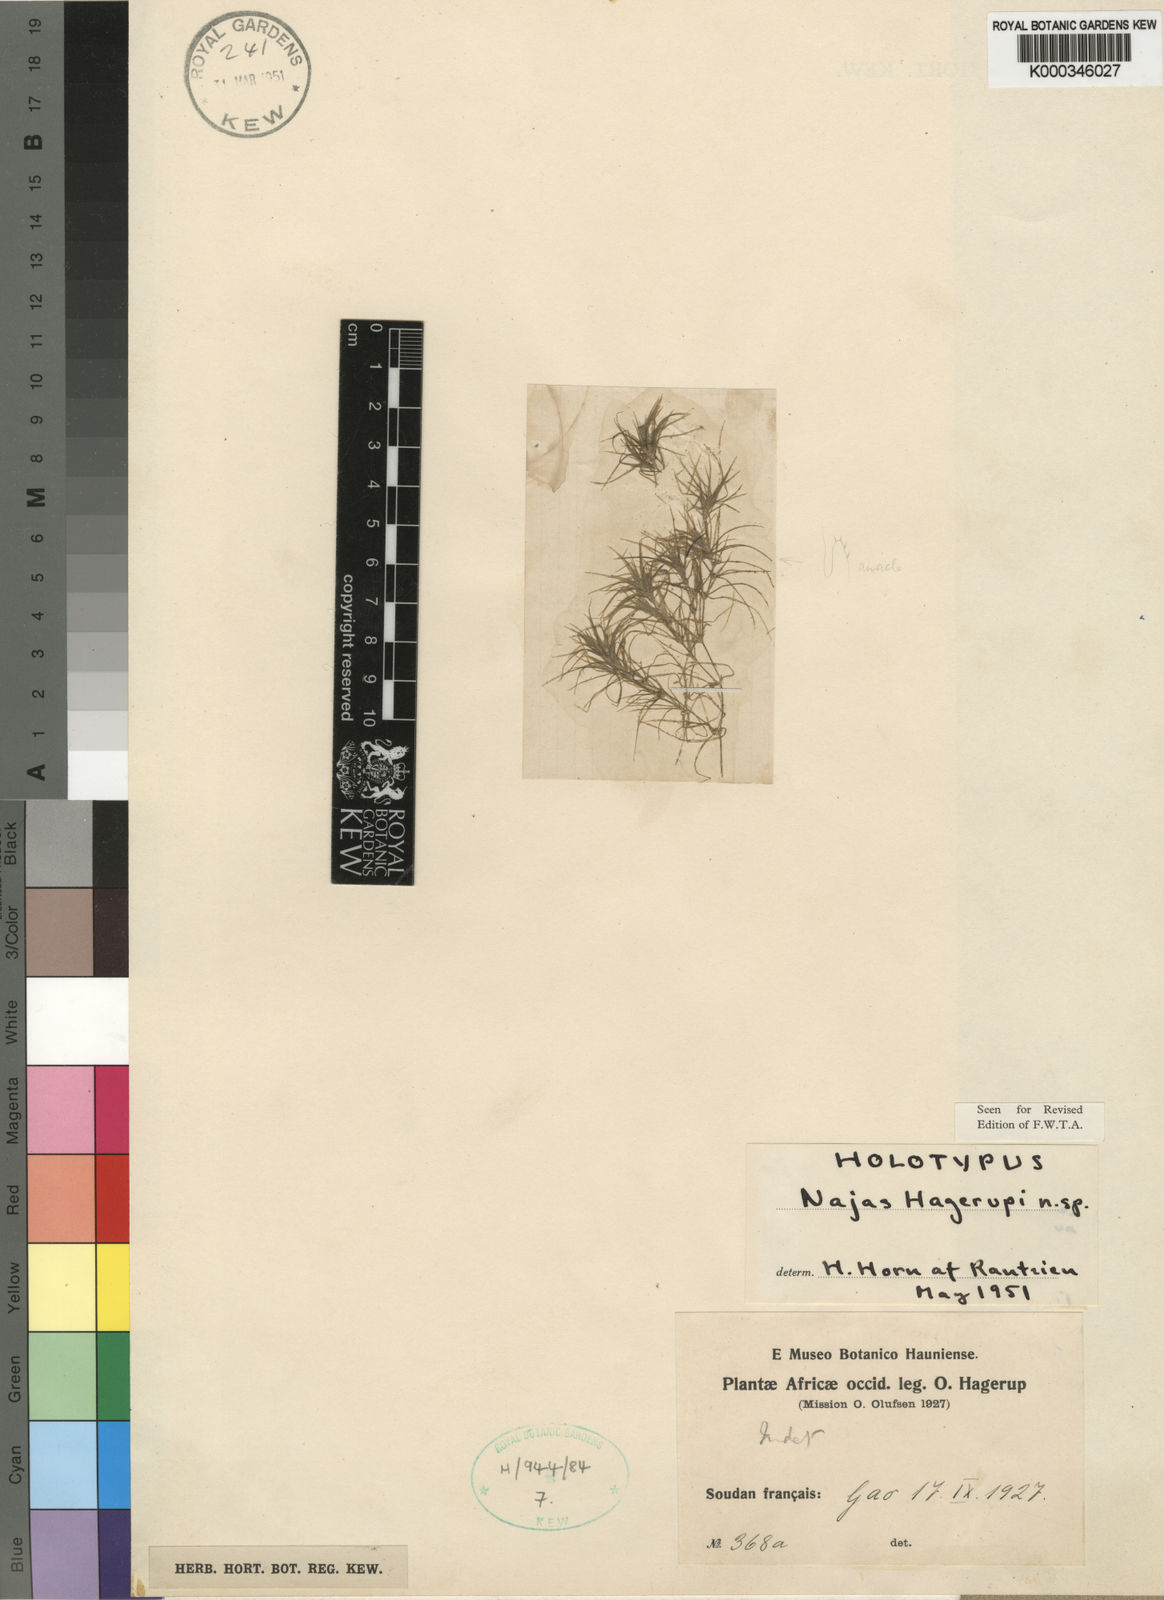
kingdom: Plantae
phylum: Tracheophyta
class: Liliopsida
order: Alismatales
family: Hydrocharitaceae
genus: Najas
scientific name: Najas hagerupii
